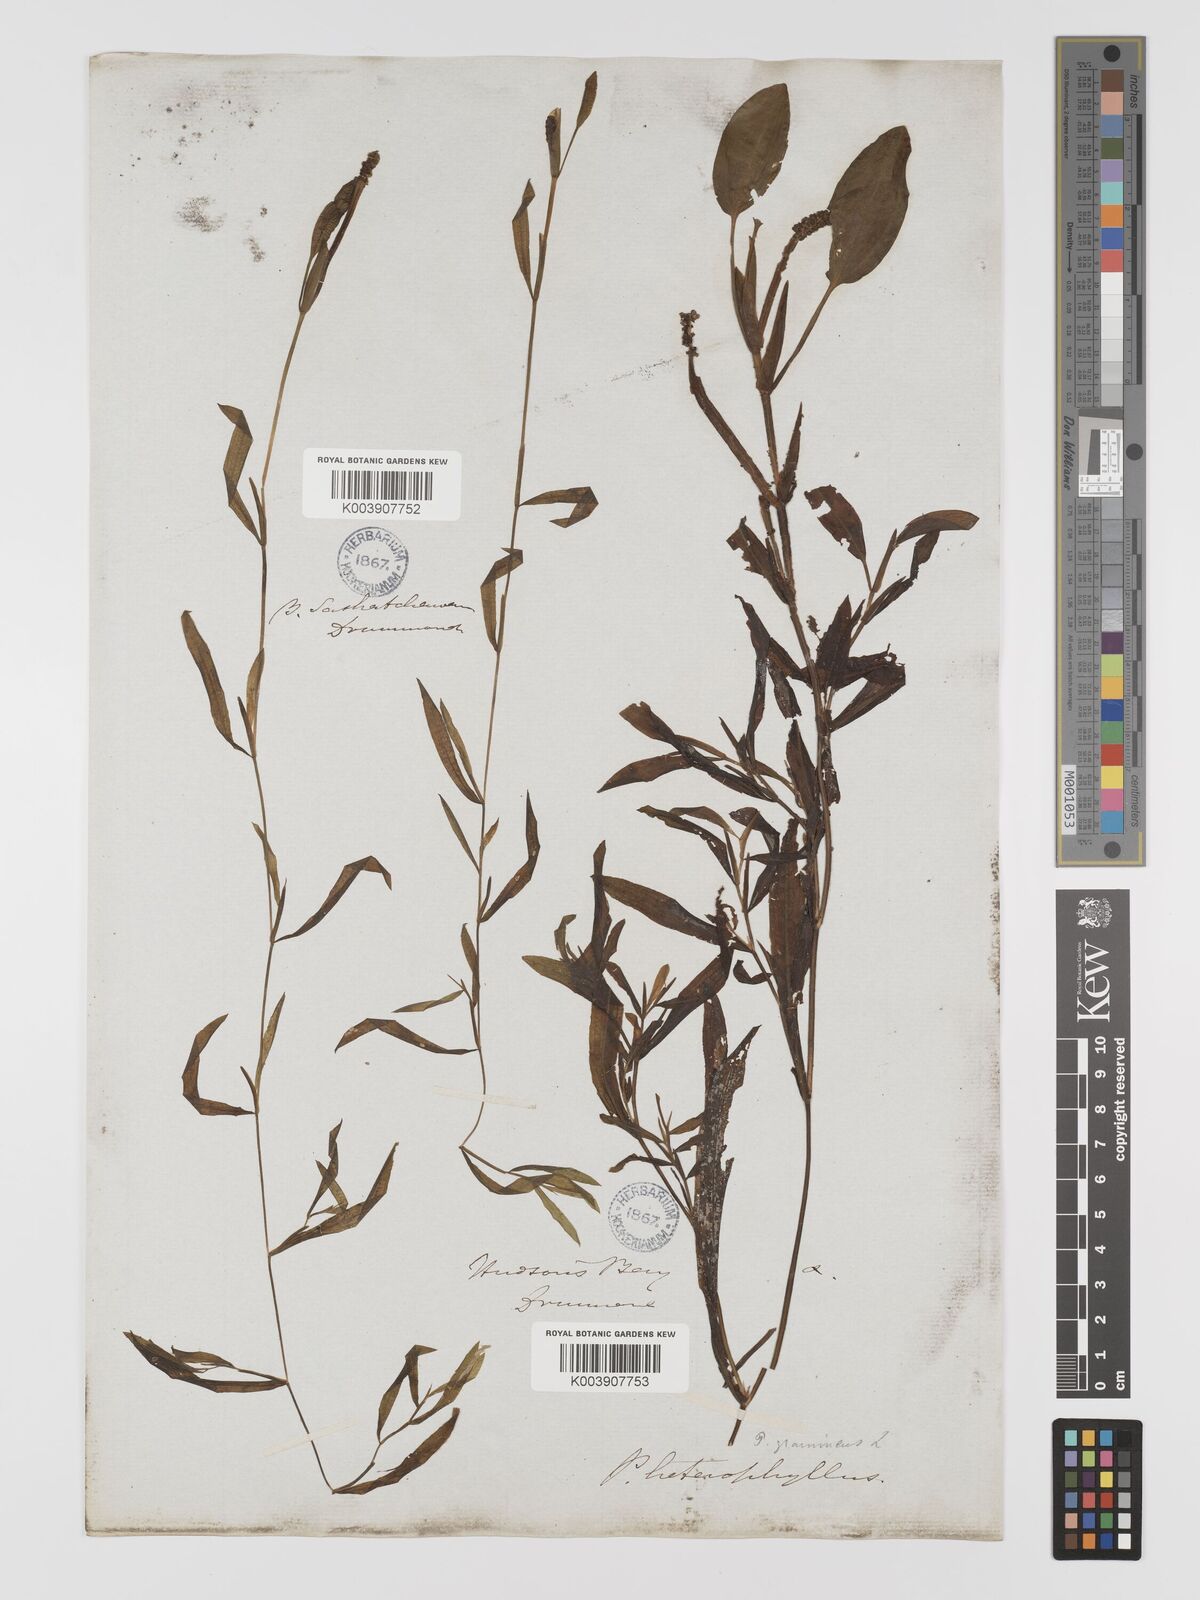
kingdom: Plantae
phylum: Tracheophyta
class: Liliopsida
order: Alismatales
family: Potamogetonaceae
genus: Potamogeton
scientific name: Potamogeton gramineus
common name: Various-leaved pondweed
